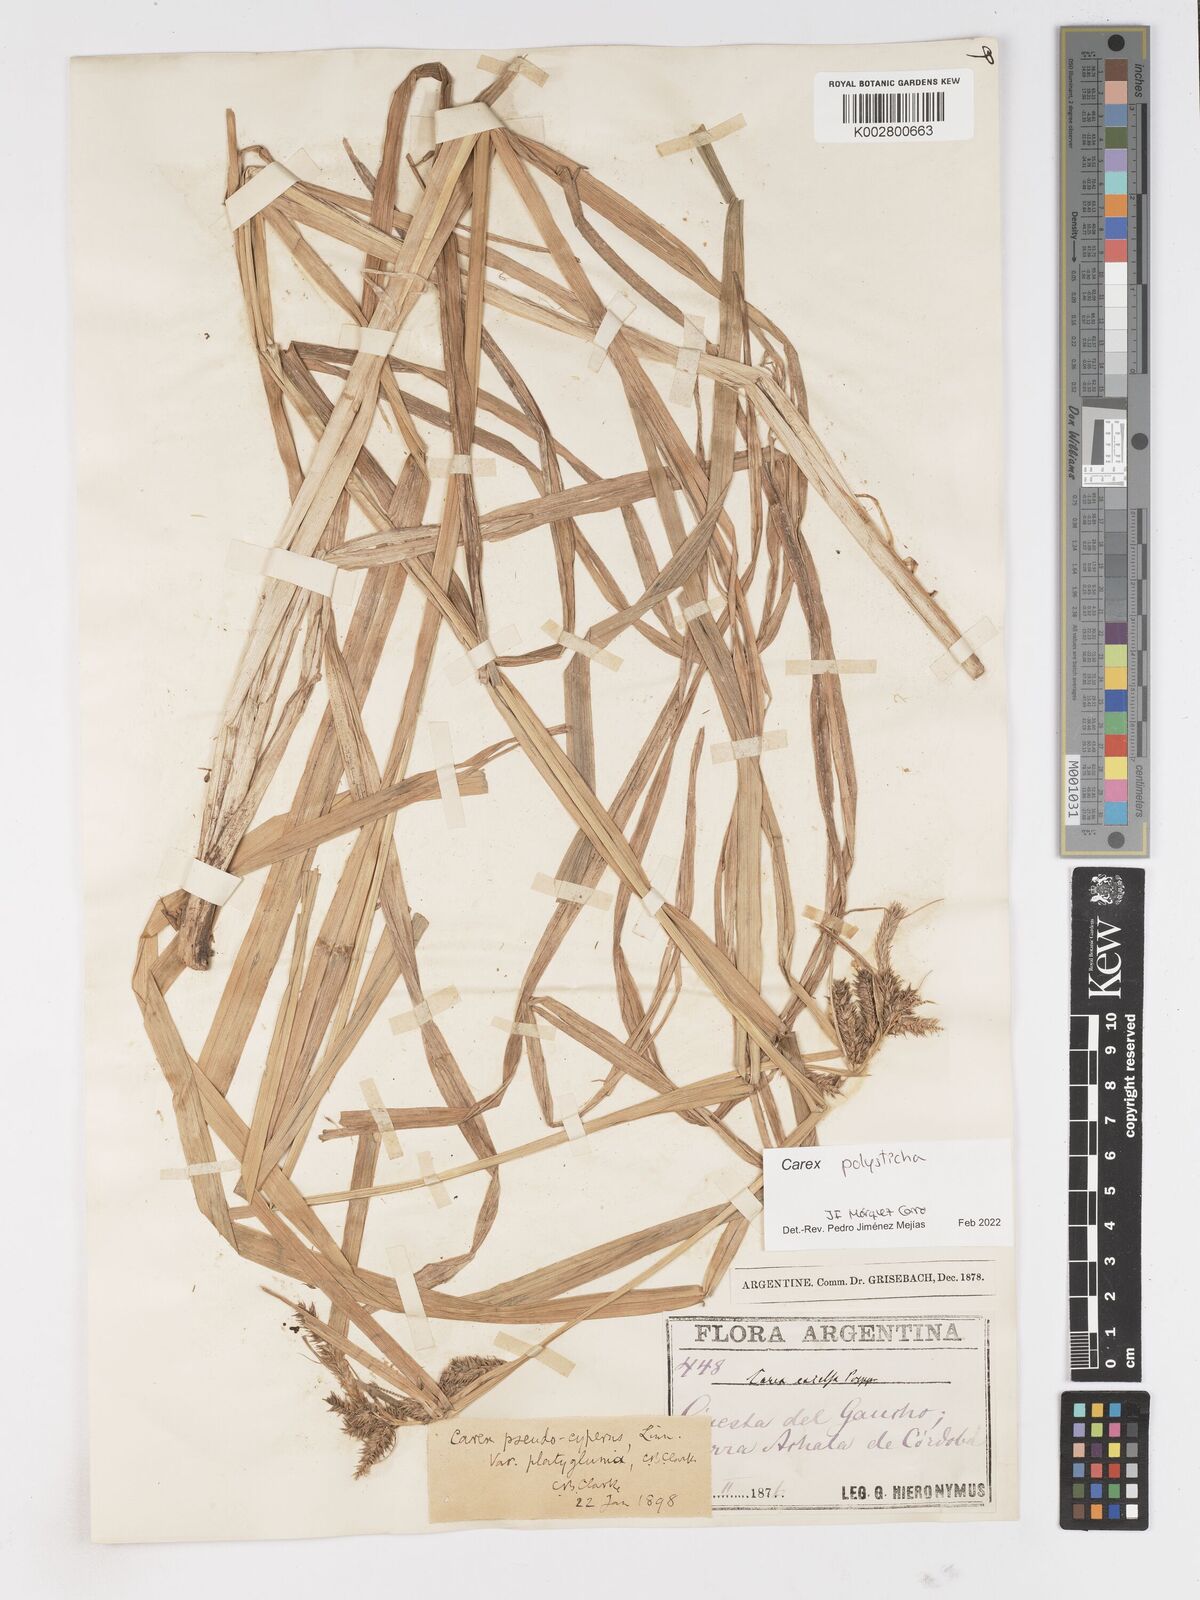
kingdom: Plantae
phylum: Tracheophyta
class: Liliopsida
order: Poales
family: Cyperaceae
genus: Carex
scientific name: Carex polysticha
